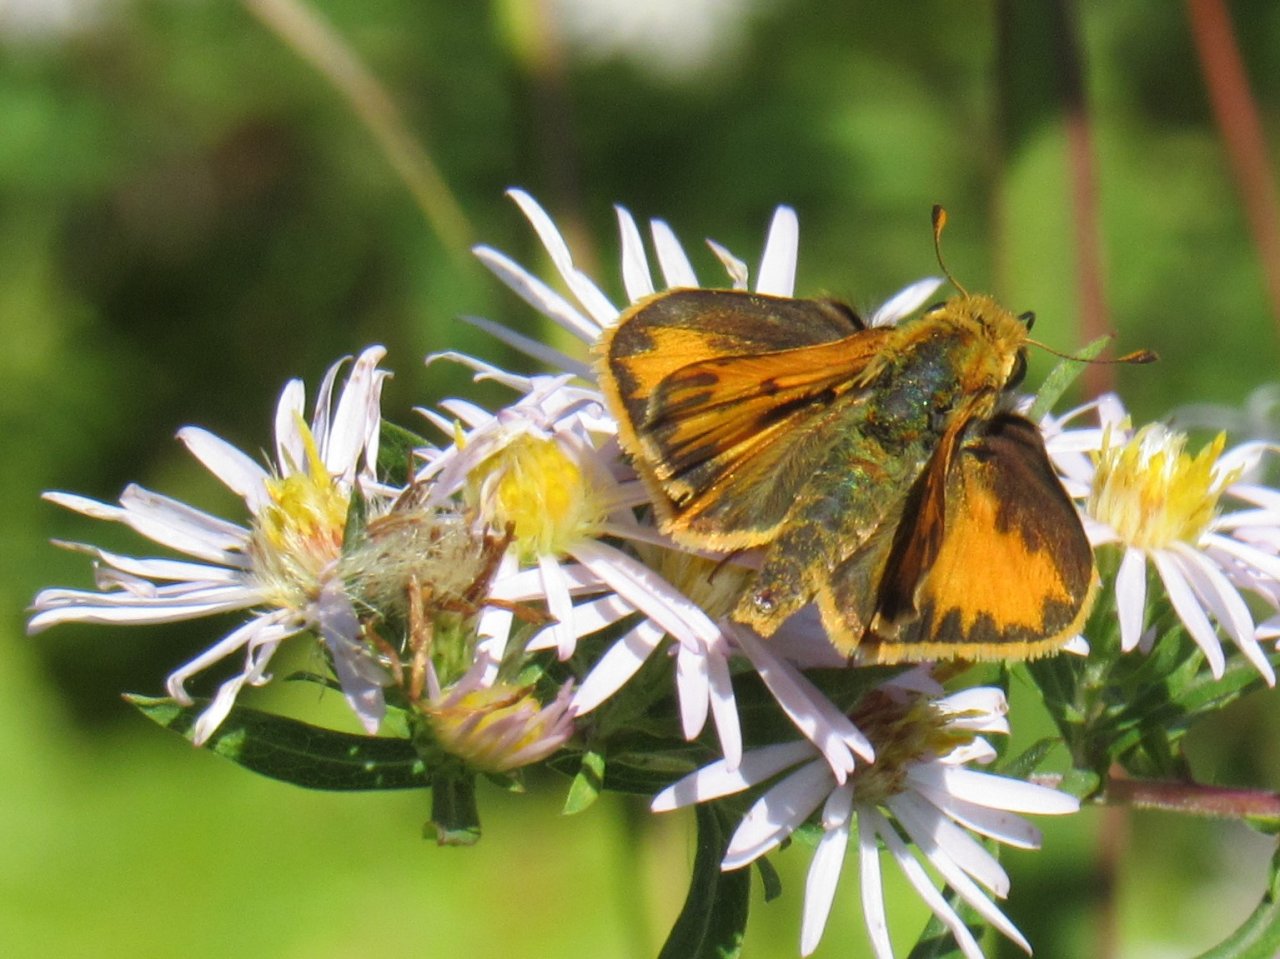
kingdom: Animalia
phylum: Arthropoda
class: Insecta
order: Lepidoptera
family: Hesperiidae
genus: Hylephila
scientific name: Hylephila phyleus
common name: Fiery Skipper
